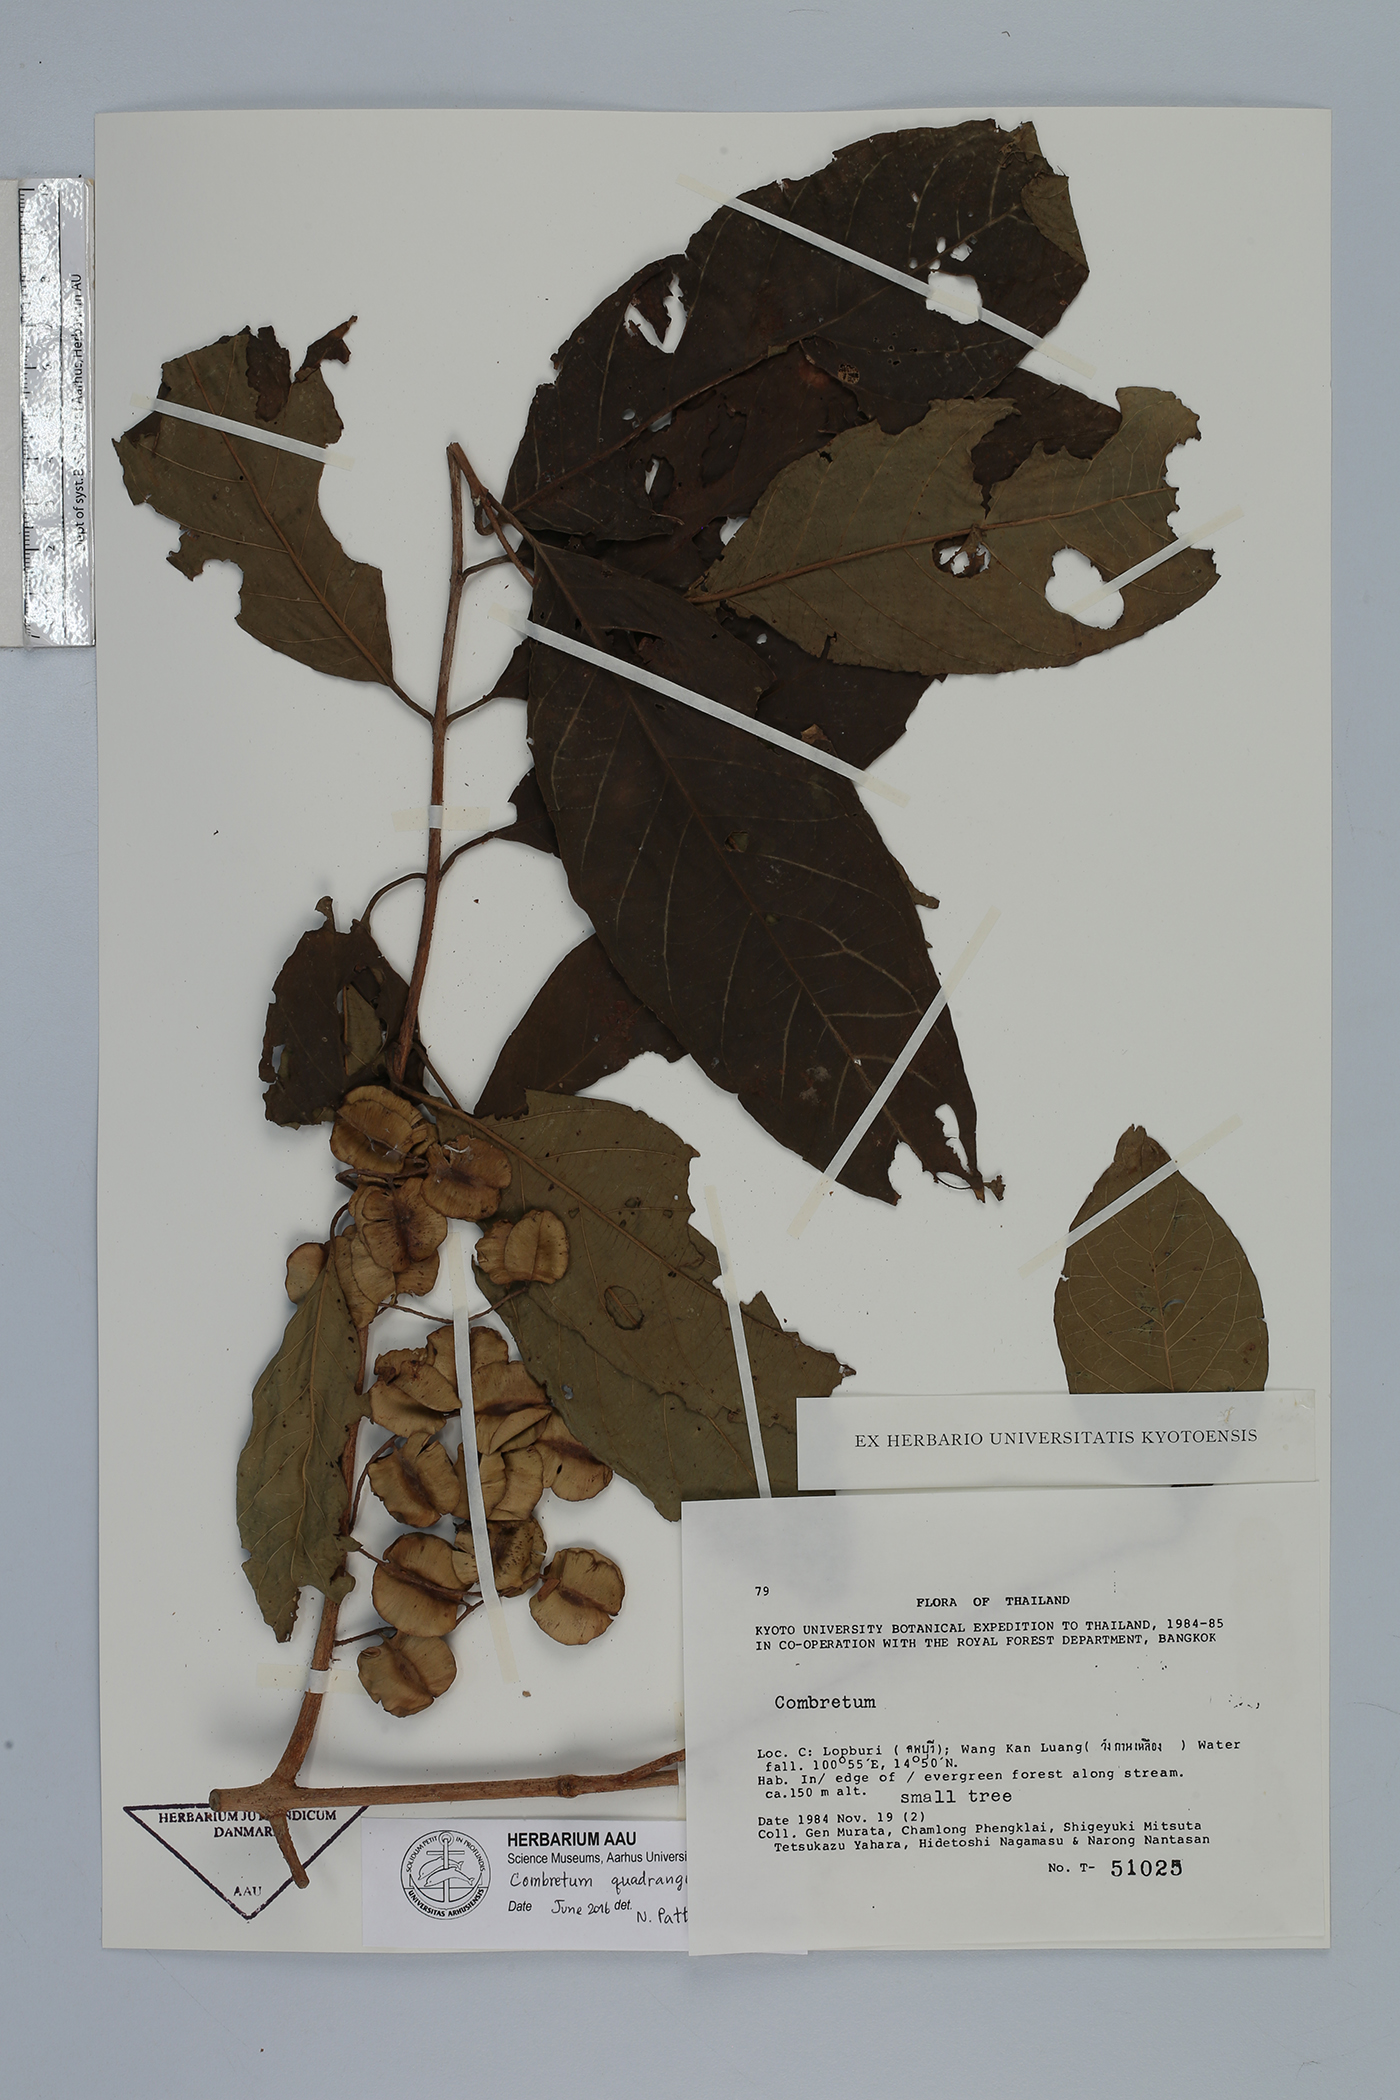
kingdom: Plantae
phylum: Tracheophyta
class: Magnoliopsida
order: Myrtales
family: Combretaceae
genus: Combretum
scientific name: Combretum quadrangulare
